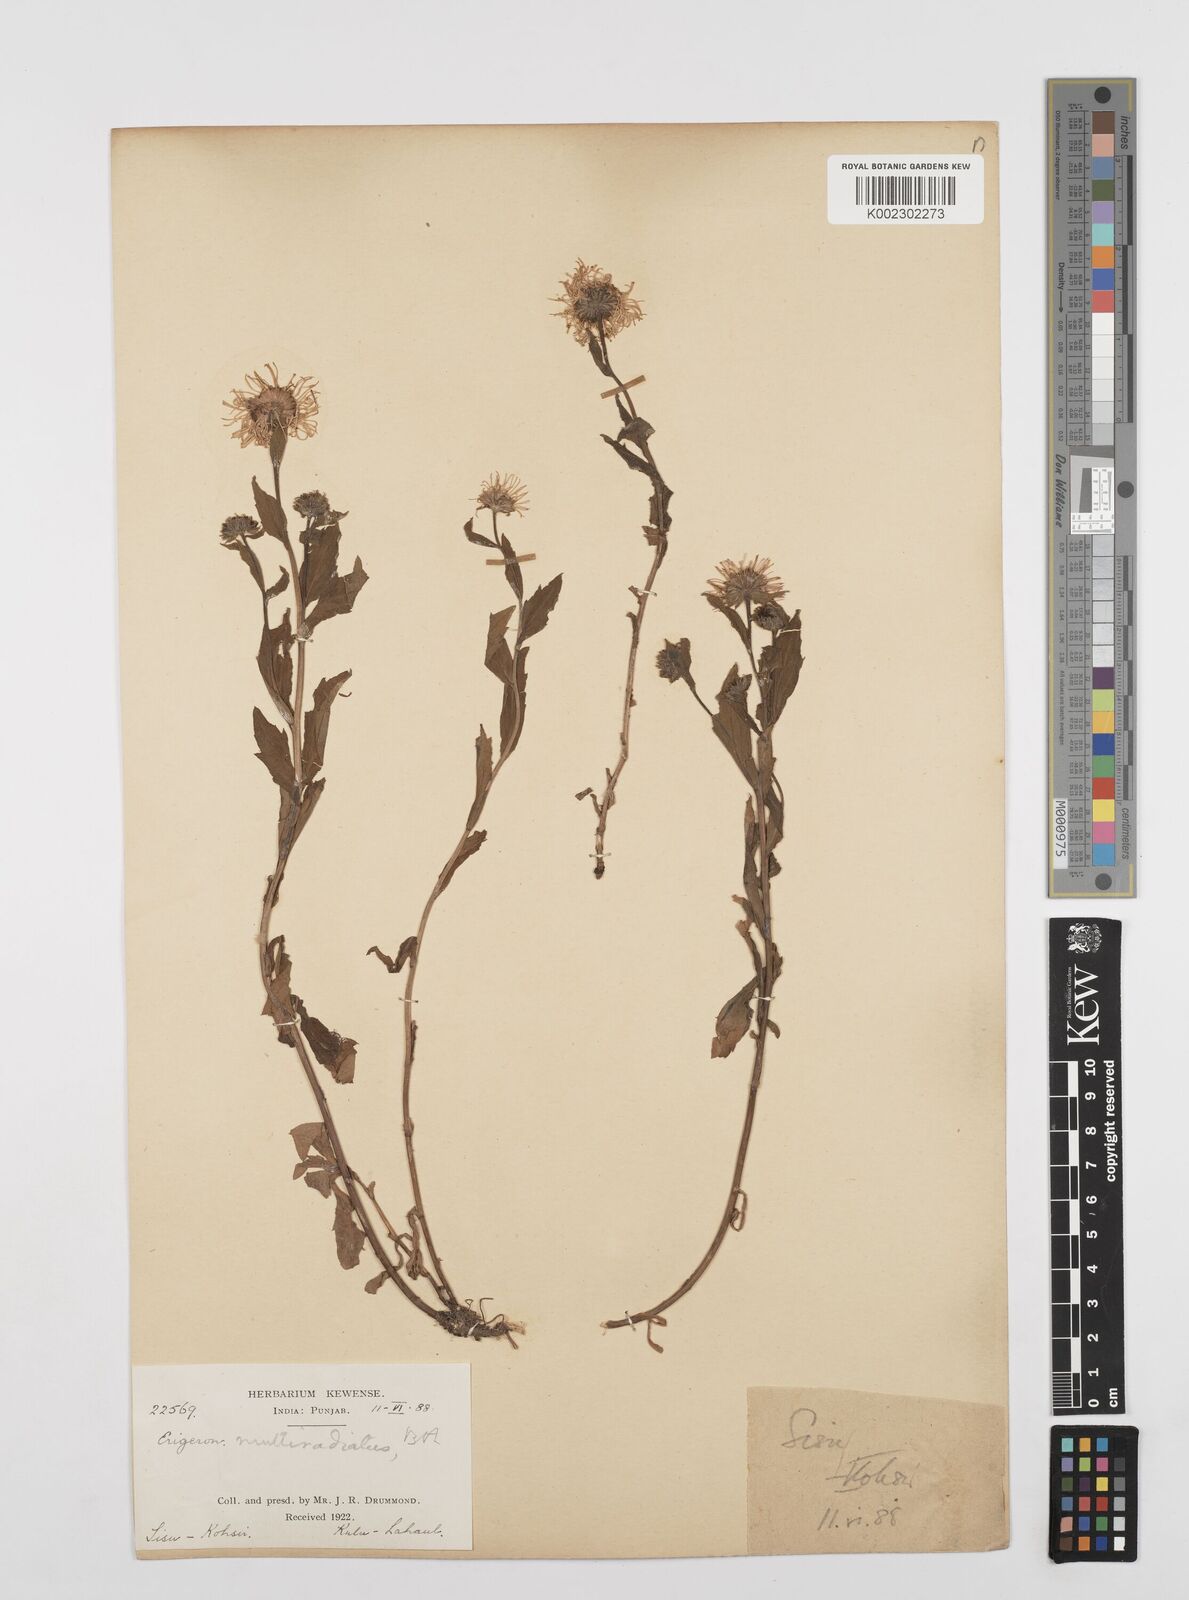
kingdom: Plantae
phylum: Tracheophyta
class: Magnoliopsida
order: Asterales
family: Asteraceae
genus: Erigeron
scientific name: Erigeron multiradiatus
